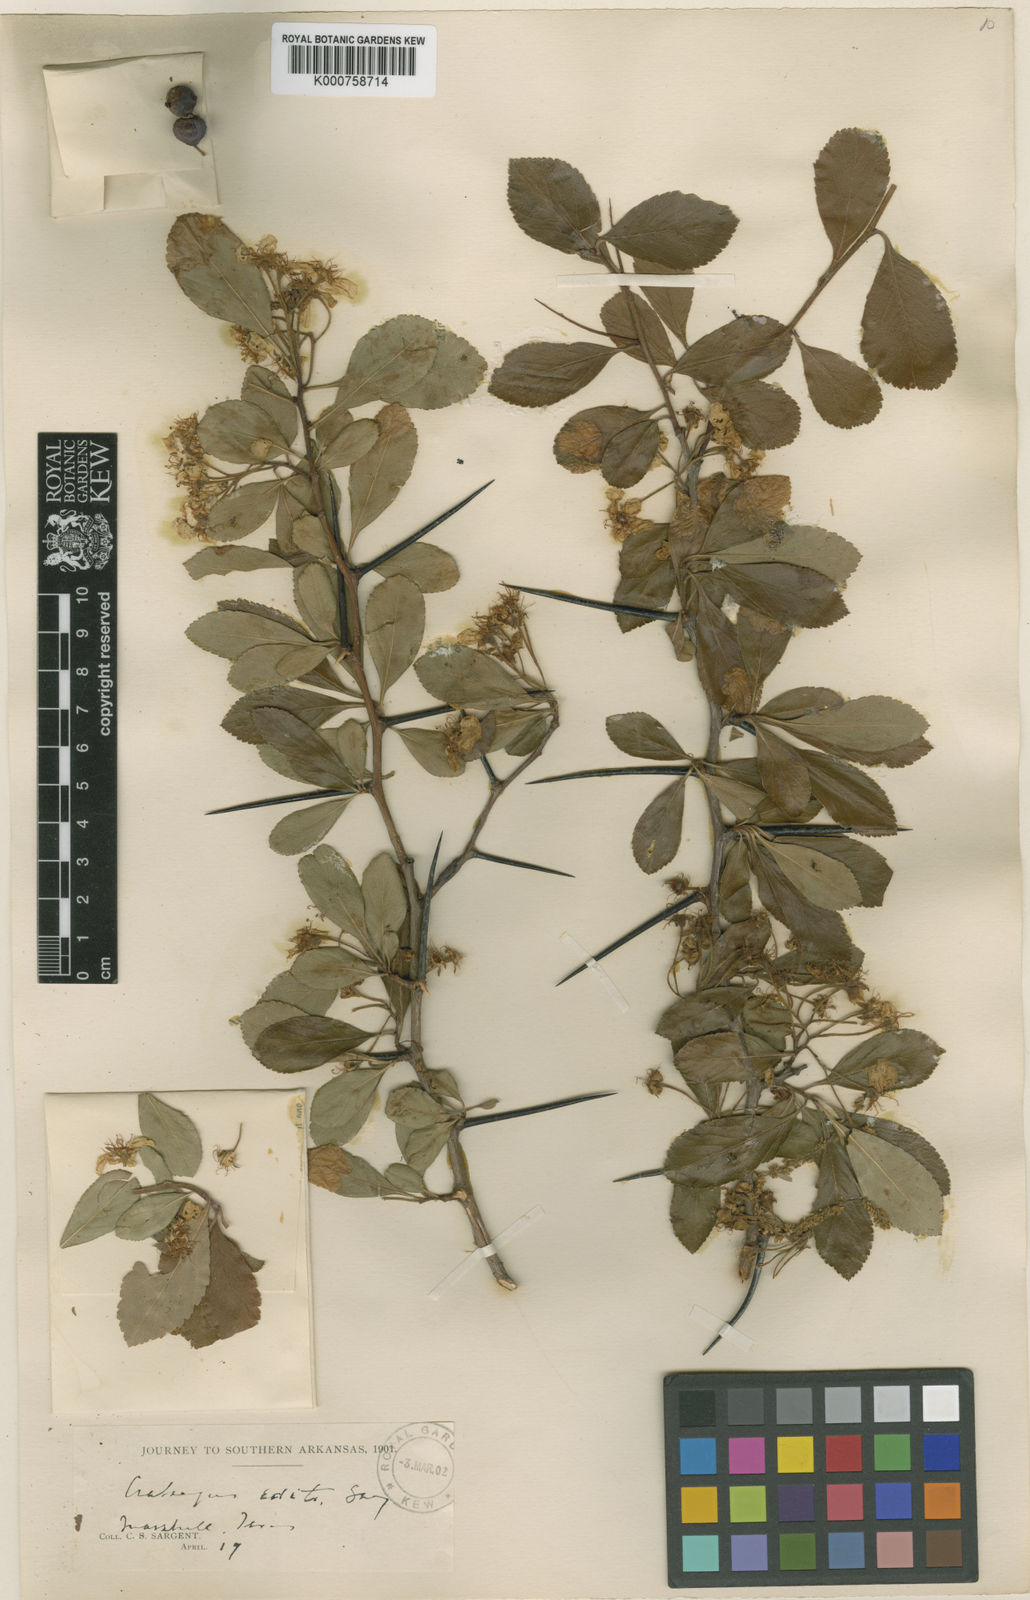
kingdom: Plantae
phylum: Tracheophyta
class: Magnoliopsida
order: Rosales
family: Rosaceae
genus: Crataegus
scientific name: Crataegus berberifolia
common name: Barberry hawthorn
